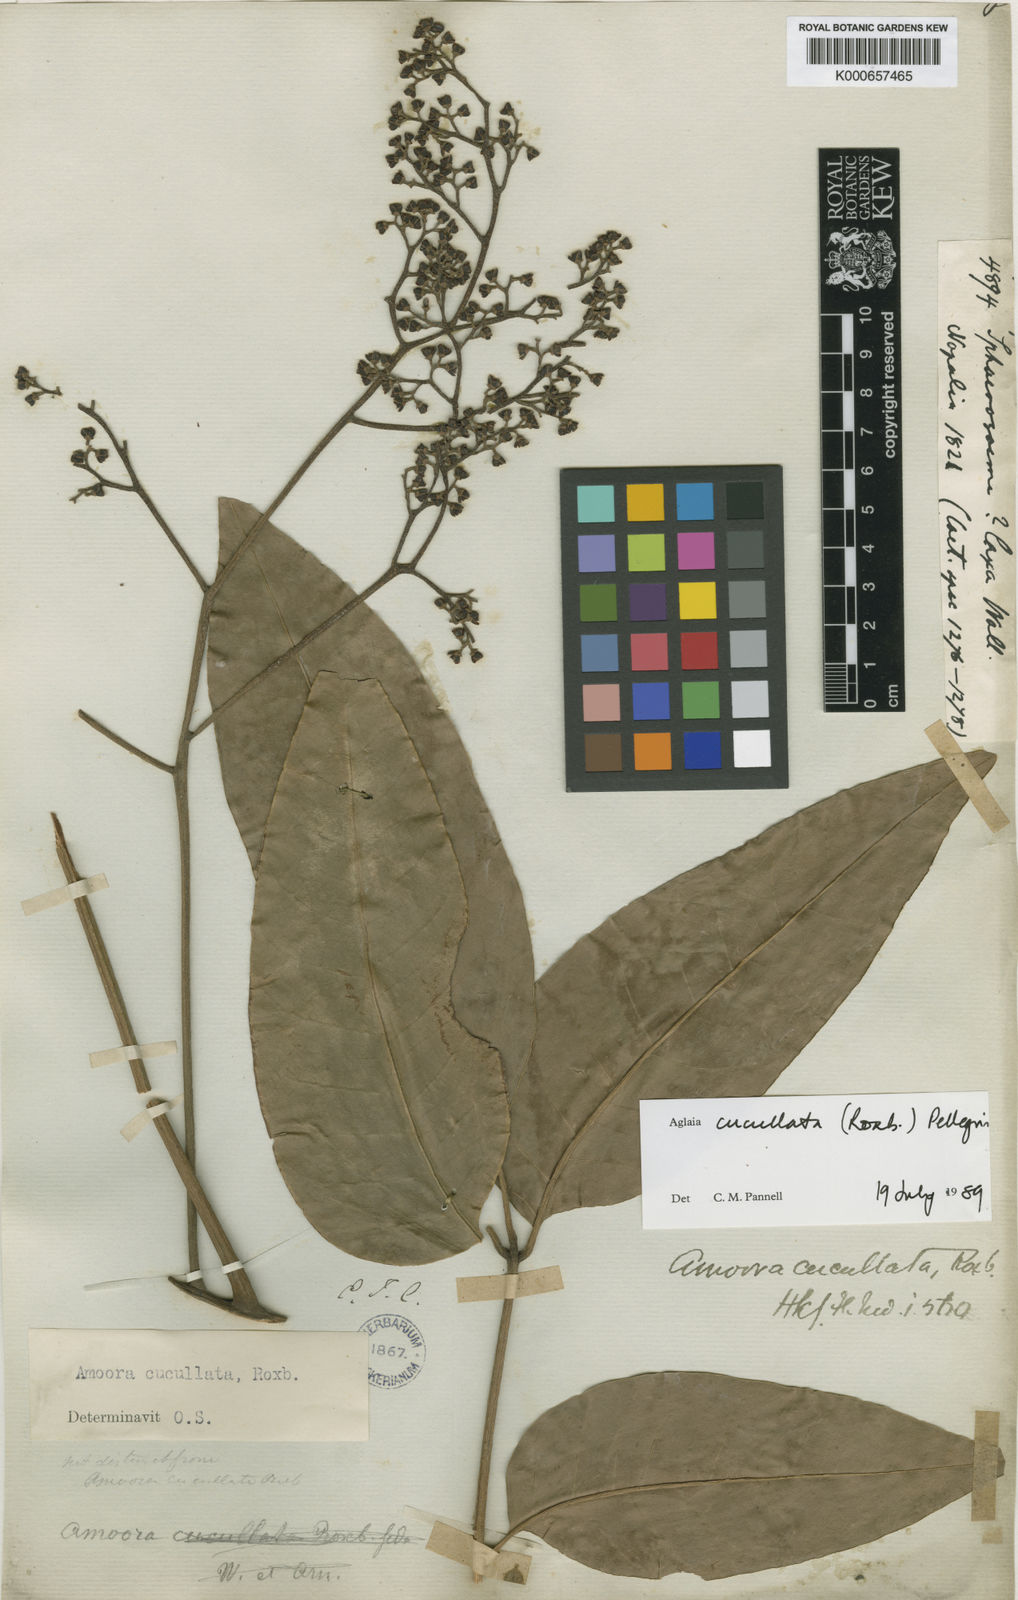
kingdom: Plantae
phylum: Tracheophyta
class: Magnoliopsida
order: Sapindales
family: Meliaceae
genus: Aglaia
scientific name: Aglaia cucullata
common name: Pacific maple
